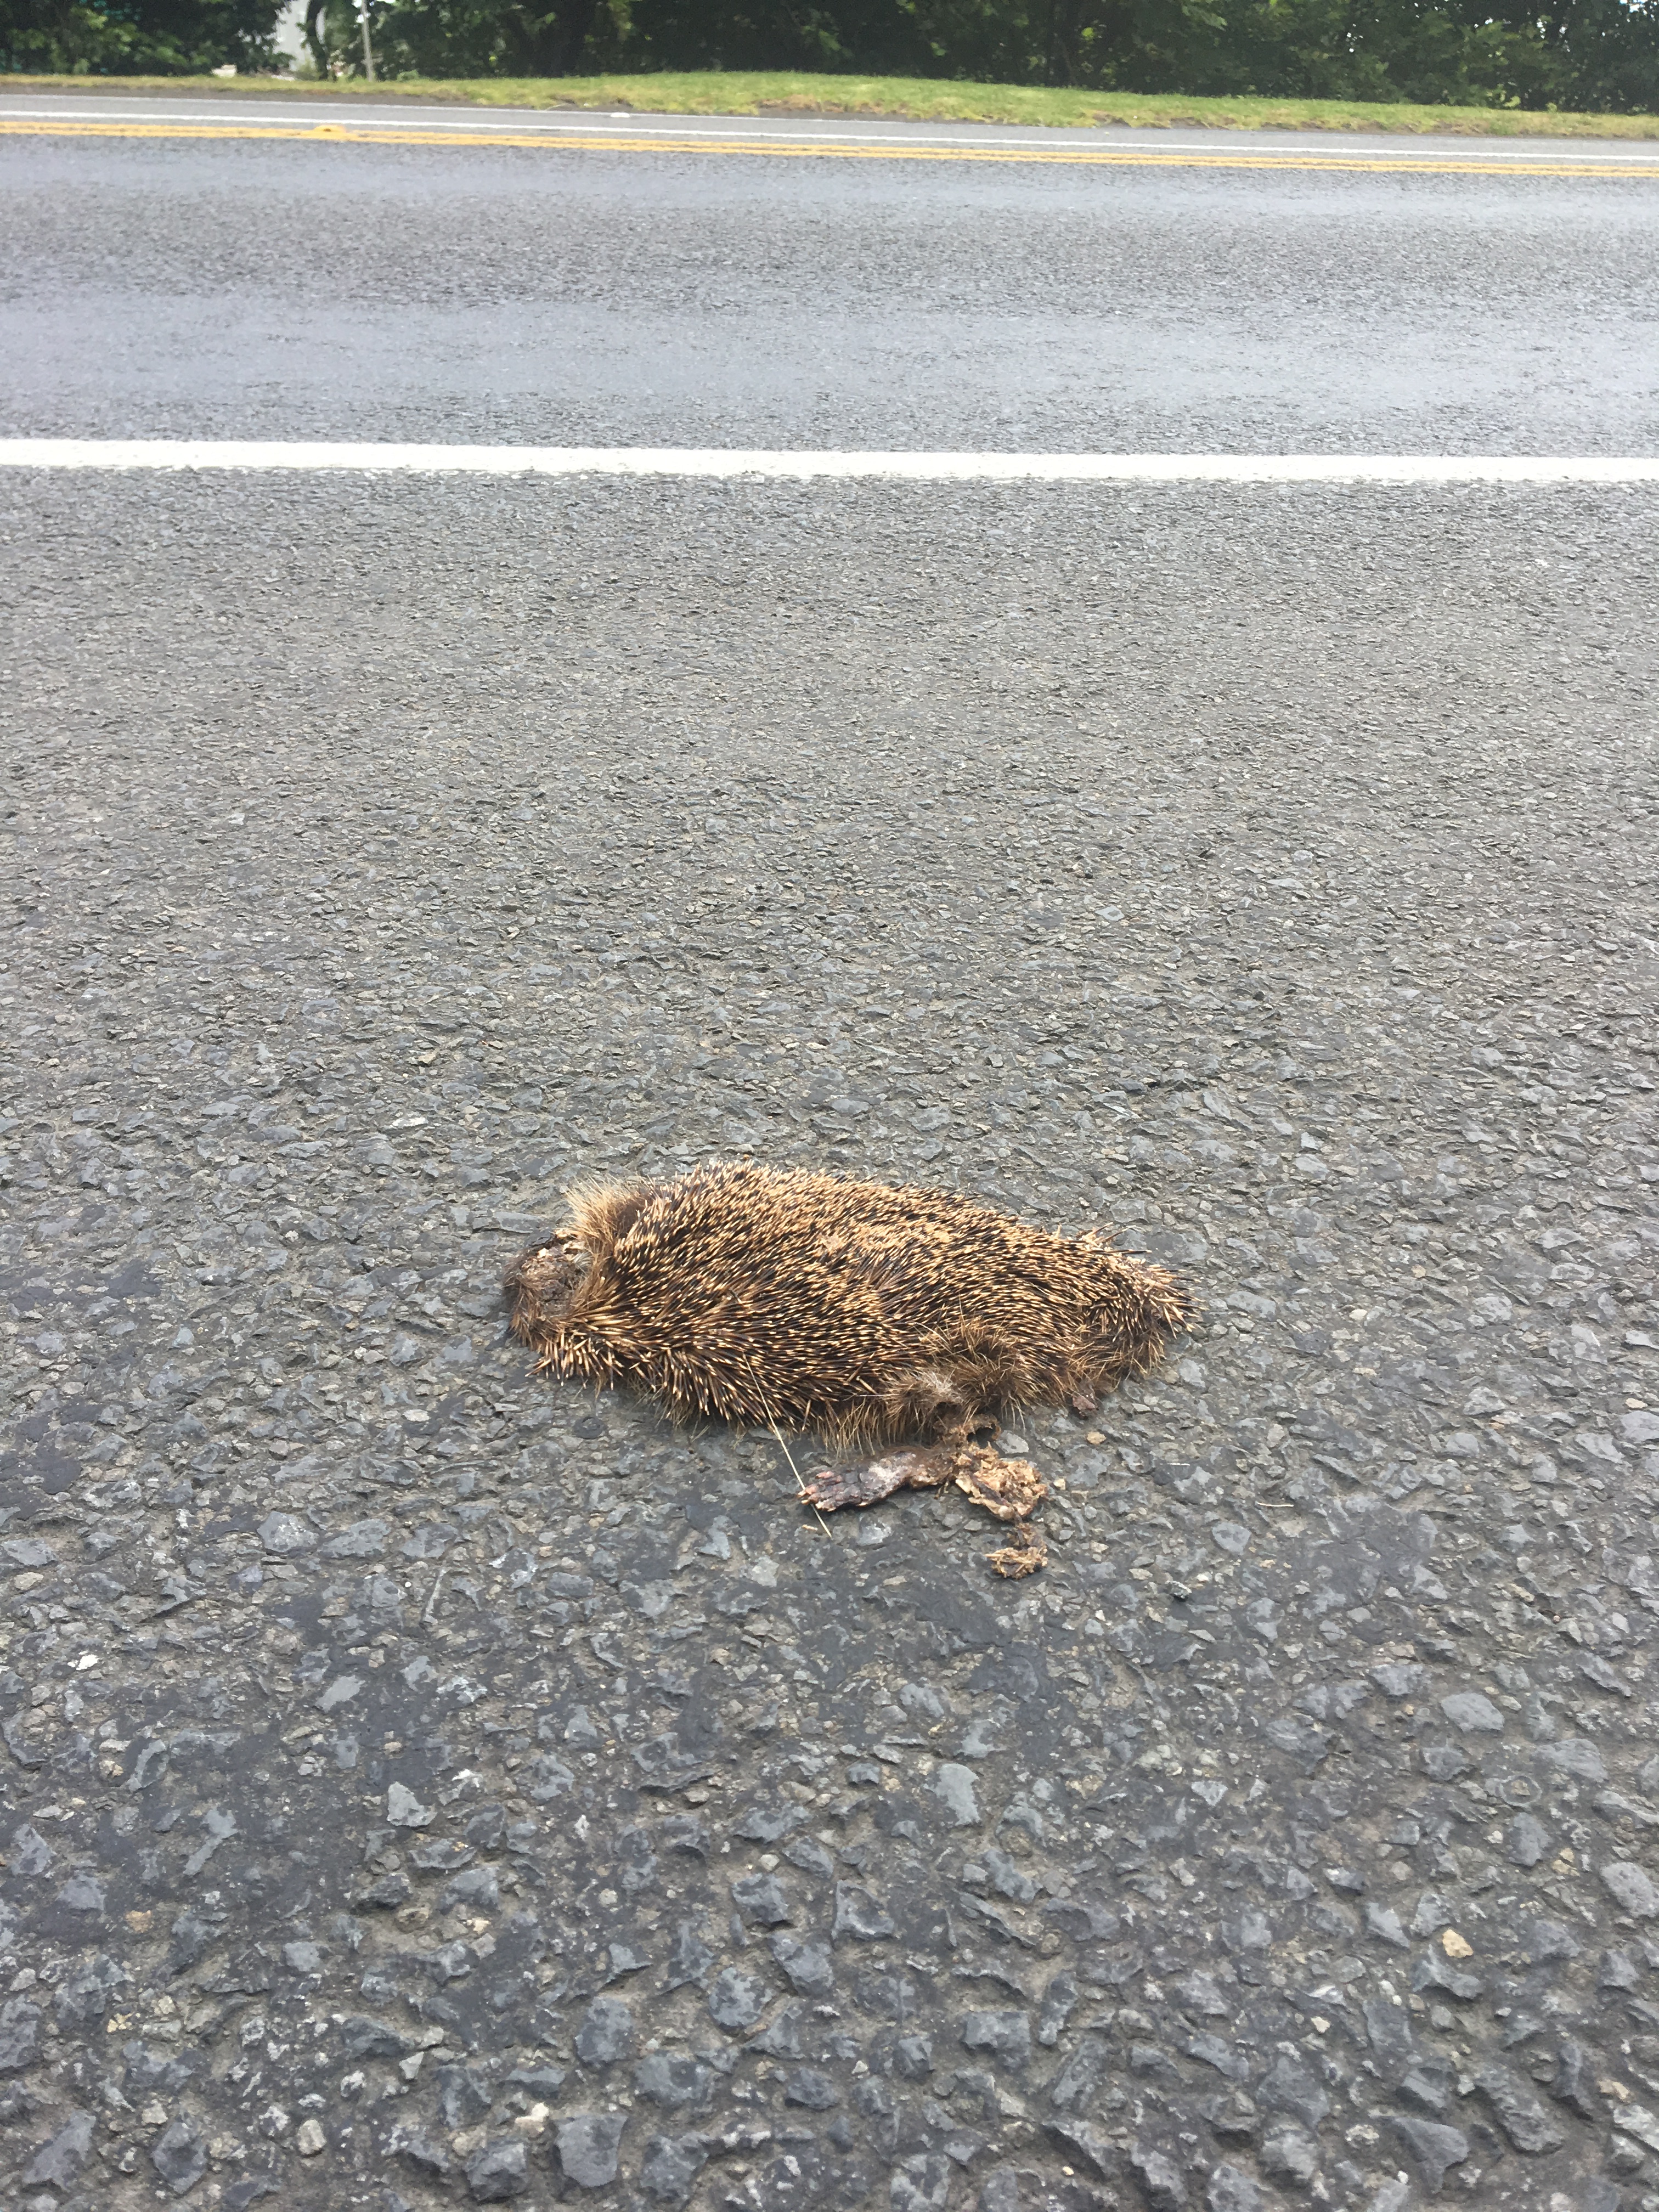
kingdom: Animalia
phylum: Chordata
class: Mammalia
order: Erinaceomorpha
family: Erinaceidae
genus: Erinaceus
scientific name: Erinaceus
